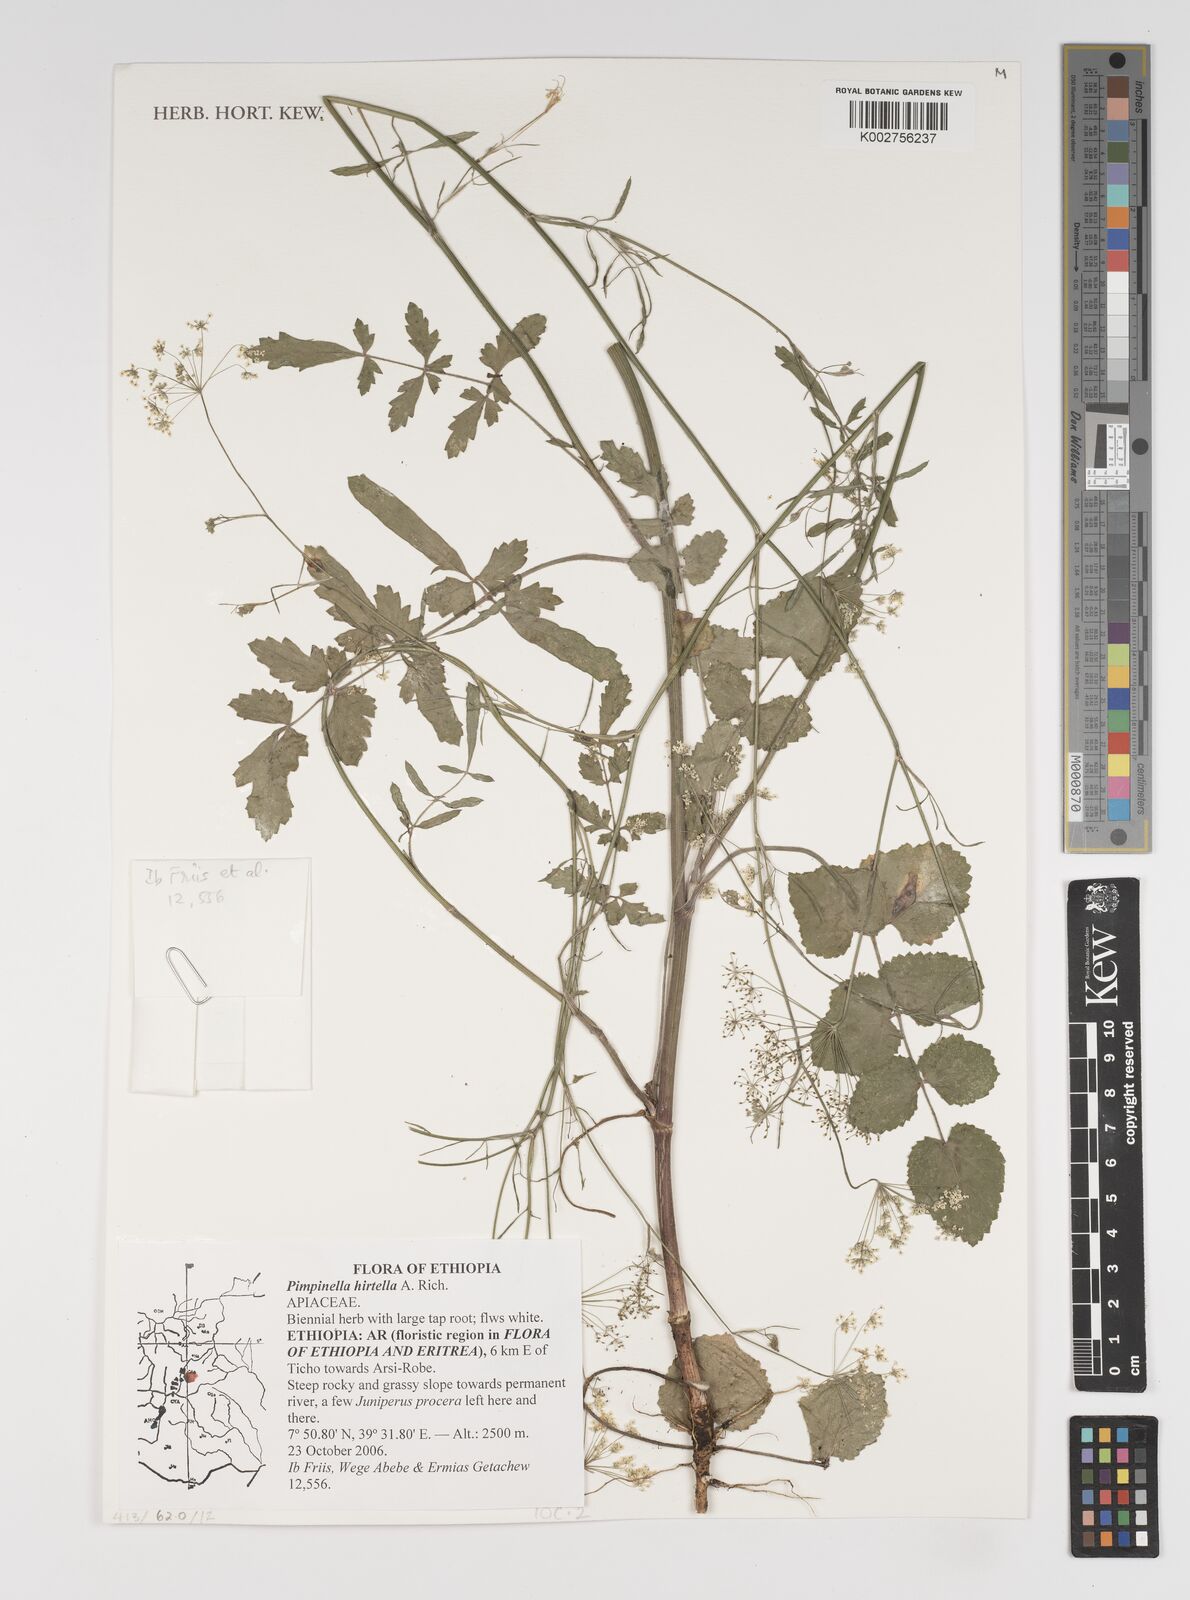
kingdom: Plantae
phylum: Tracheophyta
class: Magnoliopsida
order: Apiales
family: Apiaceae
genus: Pimpinella
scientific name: Pimpinella hirtella
